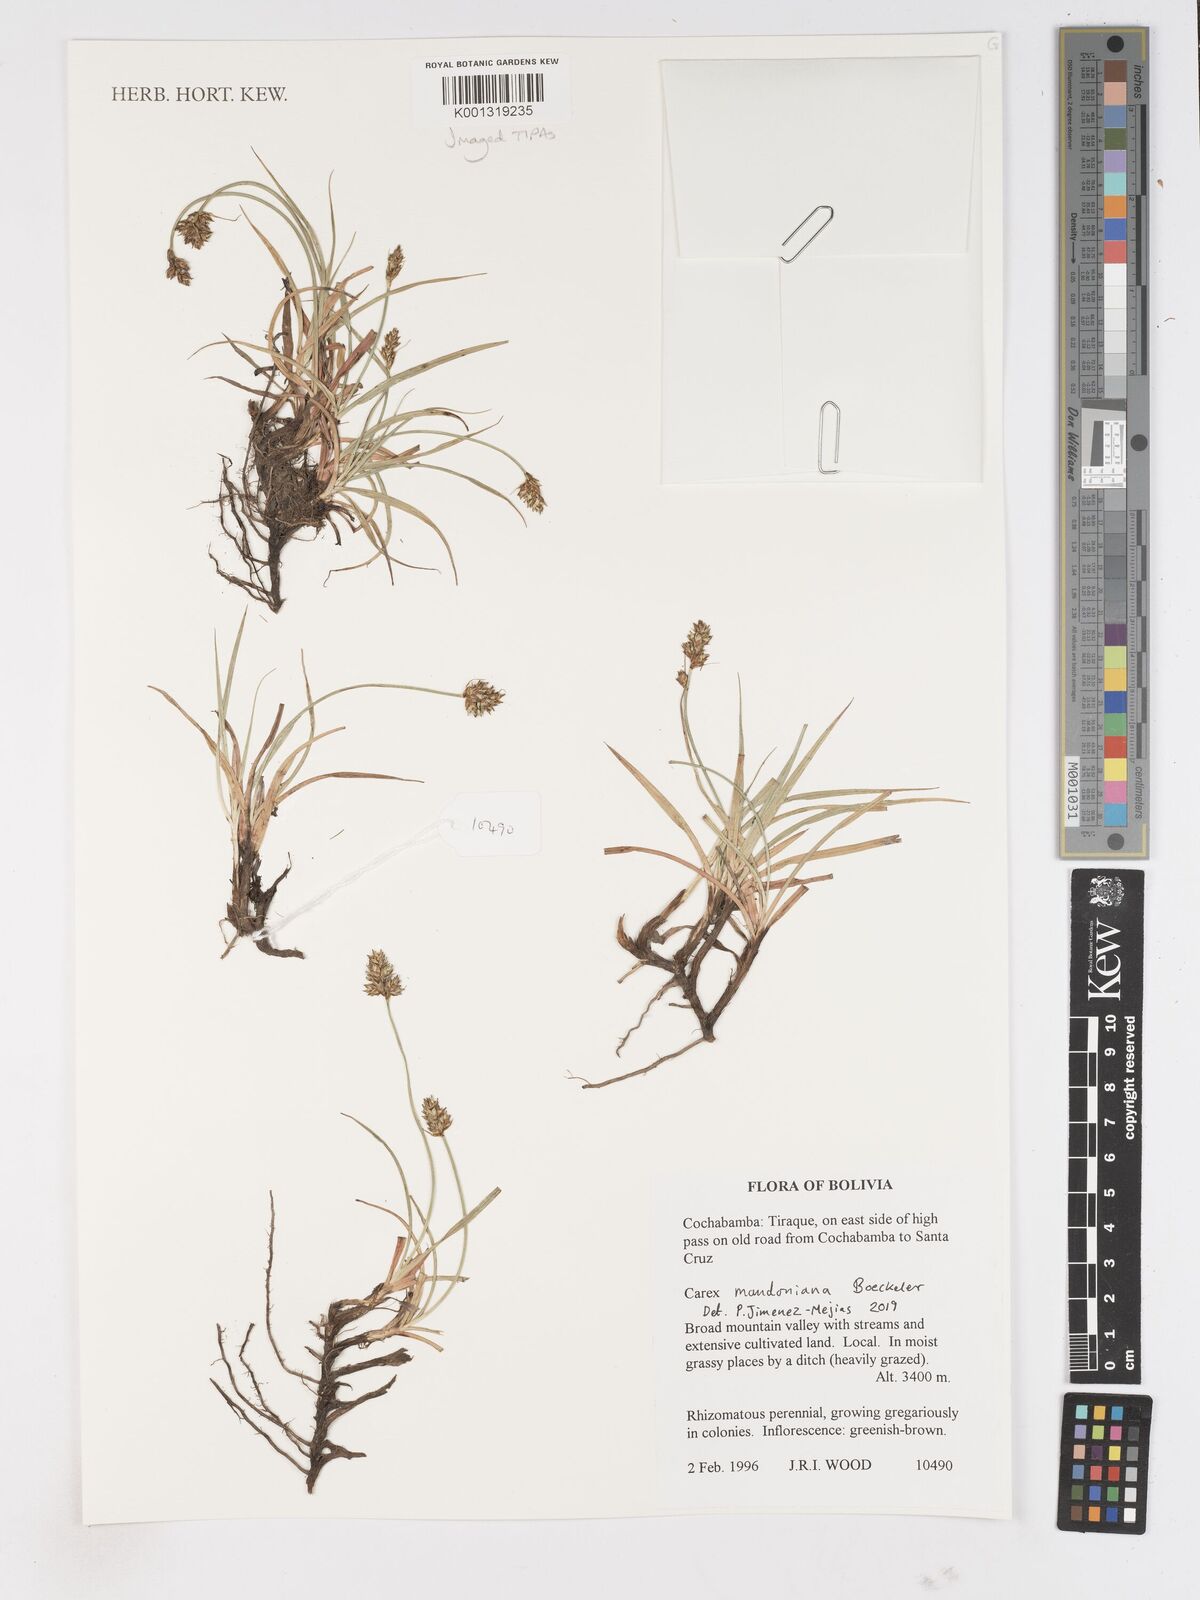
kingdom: Plantae
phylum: Tracheophyta
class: Liliopsida
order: Poales
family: Cyperaceae
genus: Carex
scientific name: Carex mandoniana
